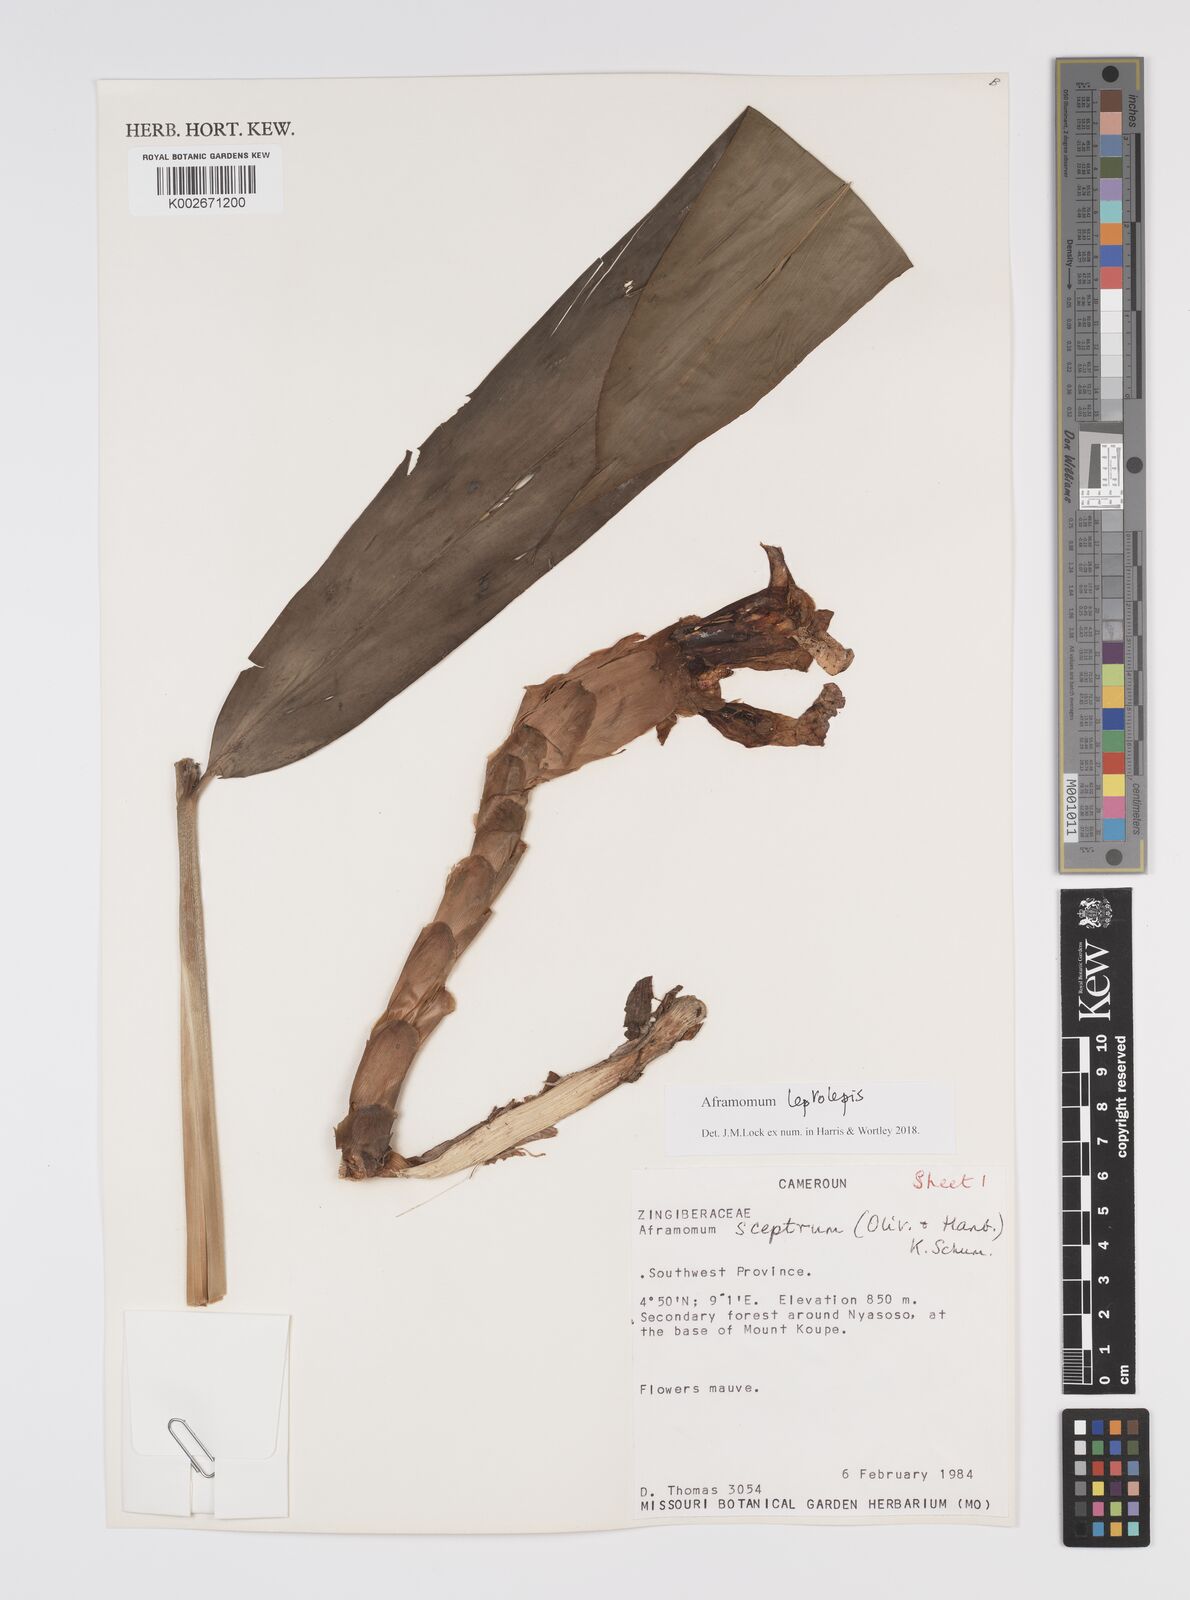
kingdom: Plantae
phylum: Tracheophyta
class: Liliopsida
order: Zingiberales
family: Zingiberaceae
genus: Aframomum
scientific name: Aframomum leptolepis
